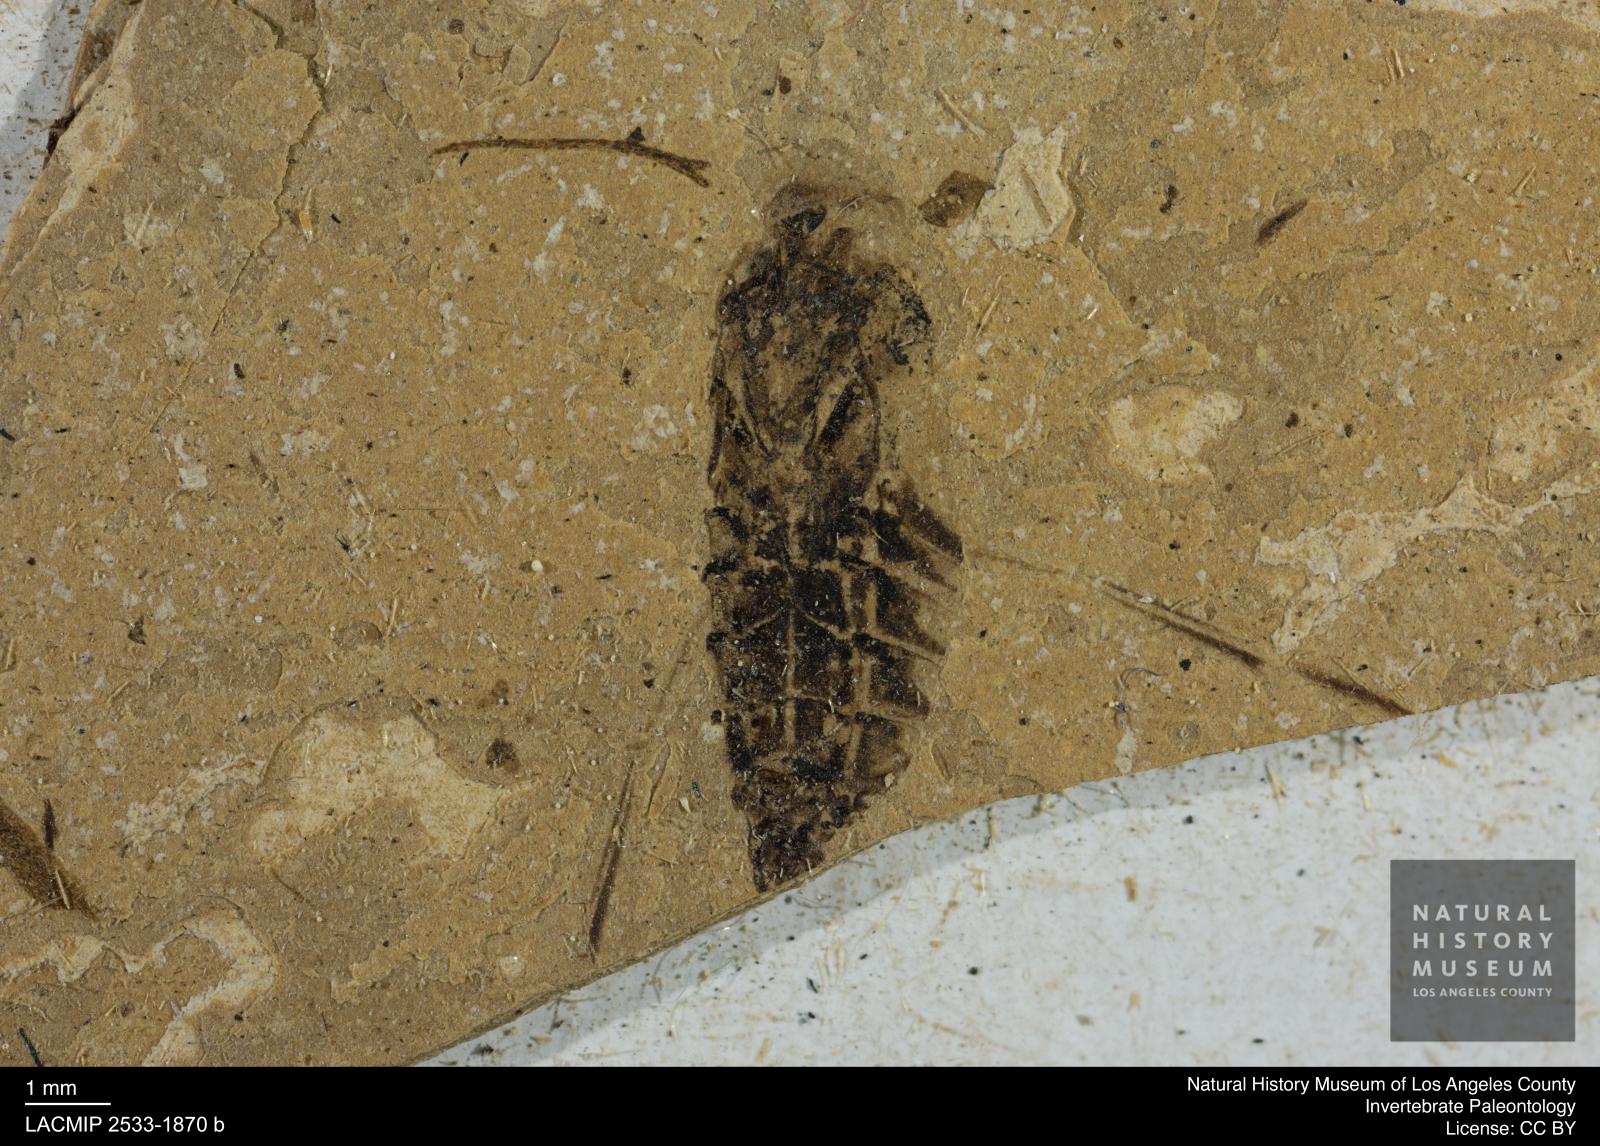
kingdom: Animalia
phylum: Arthropoda
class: Insecta
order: Hemiptera
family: Notonectidae
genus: Anisops
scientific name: Anisops Notonecta deichmuelleri
